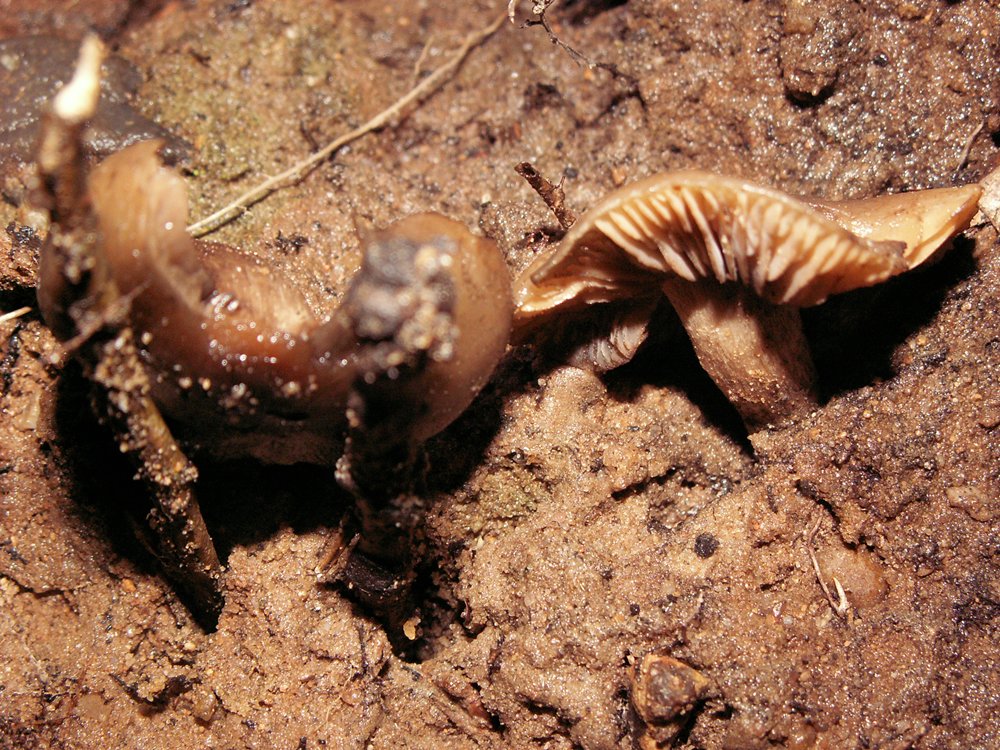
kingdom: Fungi
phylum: Basidiomycota
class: Agaricomycetes
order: Agaricales
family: Lyophyllaceae
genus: Lyophyllum
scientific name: Lyophyllum deliberatum
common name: gråbrun gråblad
